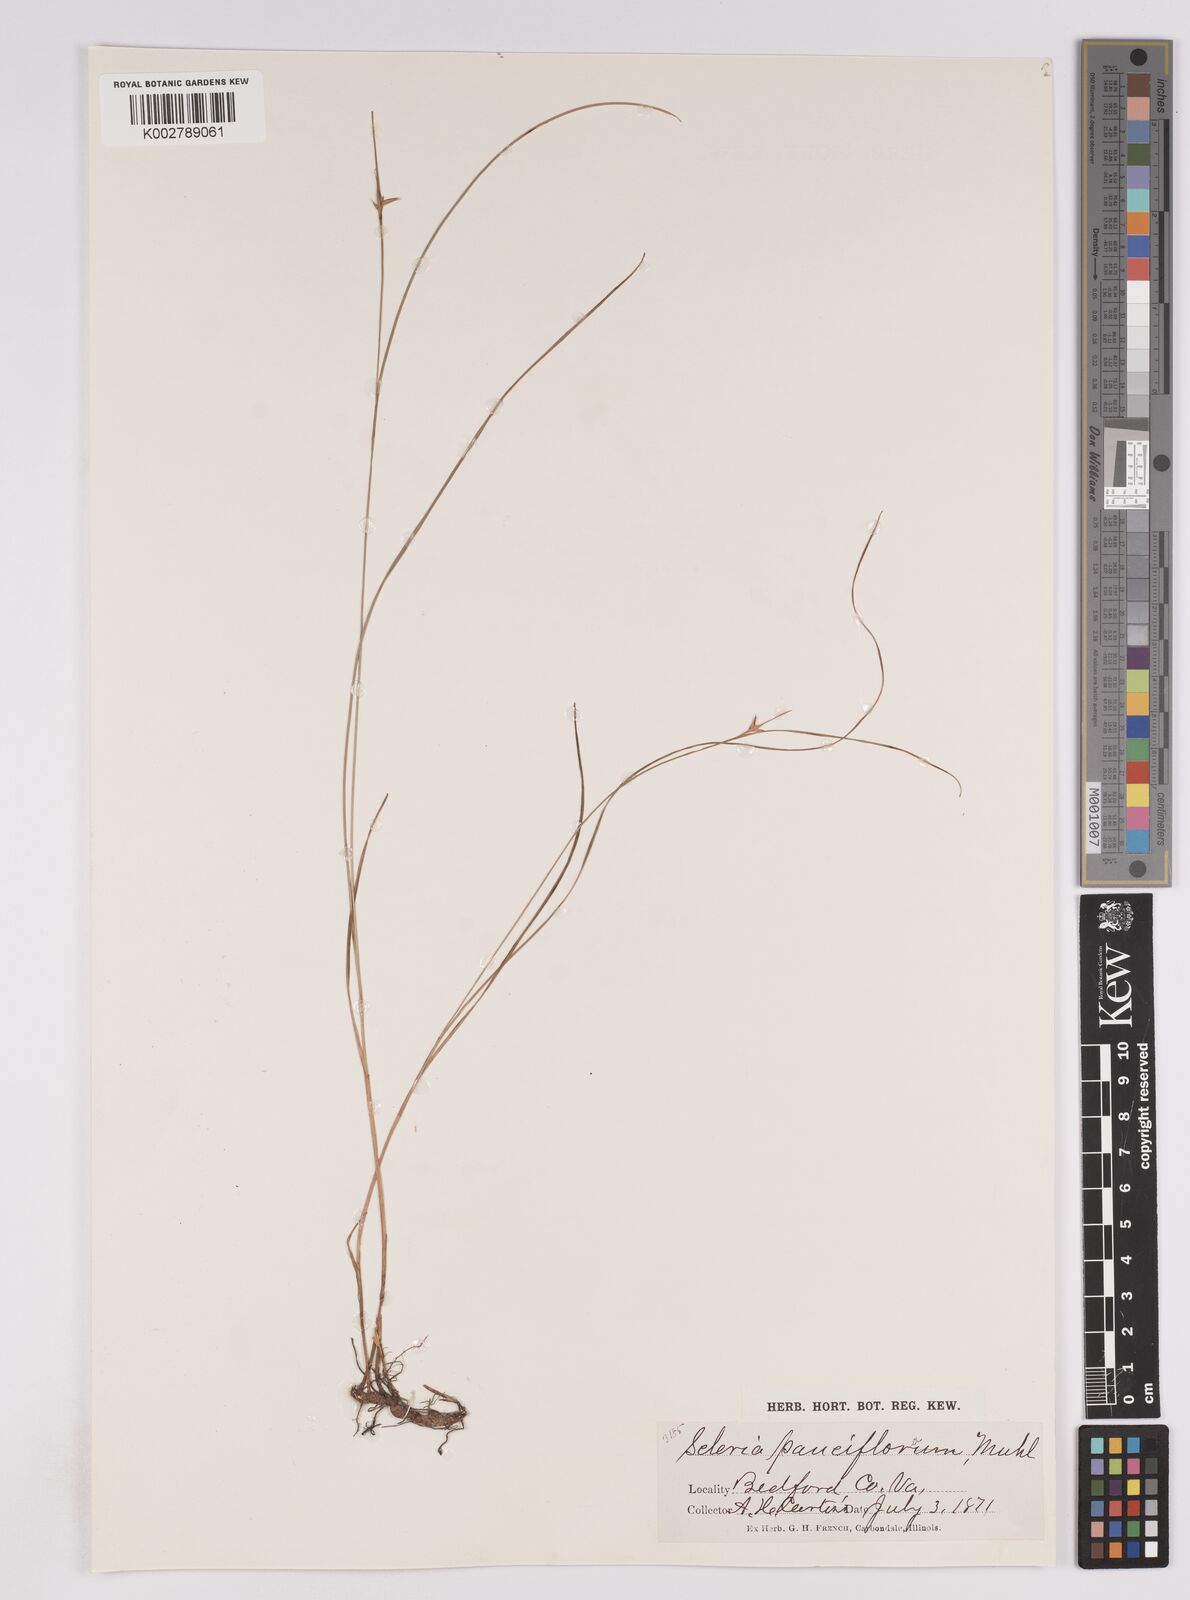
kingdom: Plantae
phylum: Tracheophyta
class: Liliopsida
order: Poales
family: Cyperaceae
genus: Scleria
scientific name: Scleria ciliata
